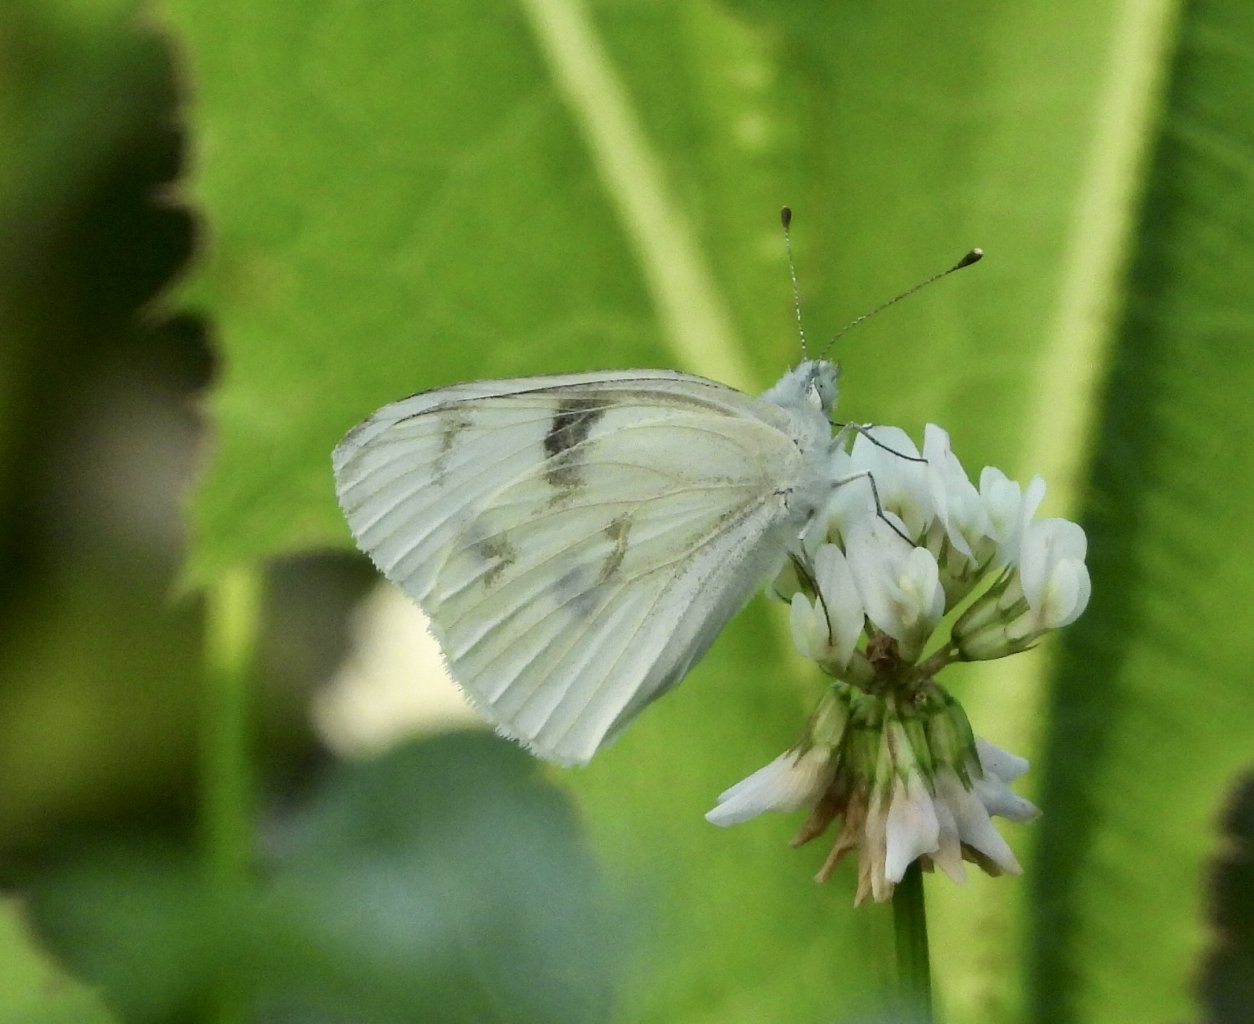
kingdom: Animalia
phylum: Arthropoda
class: Insecta
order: Lepidoptera
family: Pieridae
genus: Pontia
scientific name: Pontia protodice
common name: Checkered White
